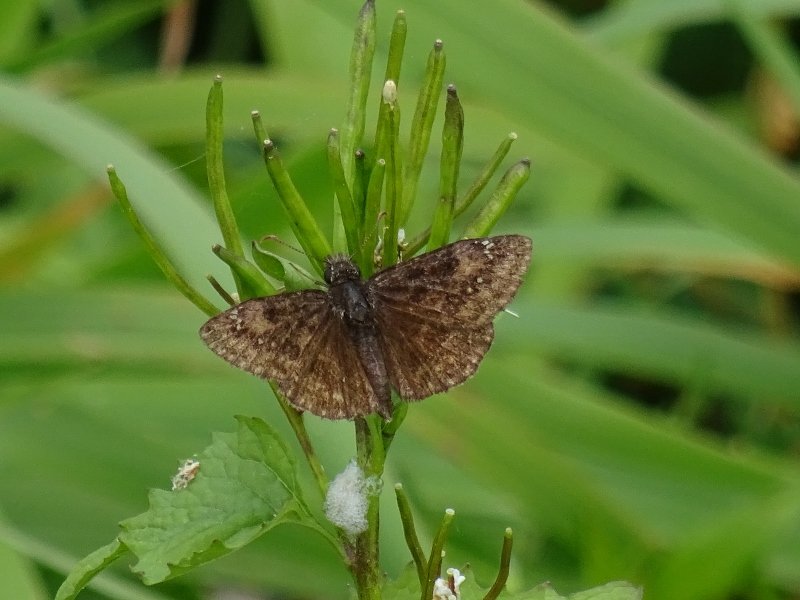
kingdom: Animalia
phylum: Arthropoda
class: Insecta
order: Lepidoptera
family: Hesperiidae
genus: Gesta
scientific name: Gesta
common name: Wild Indigo Duskywing
